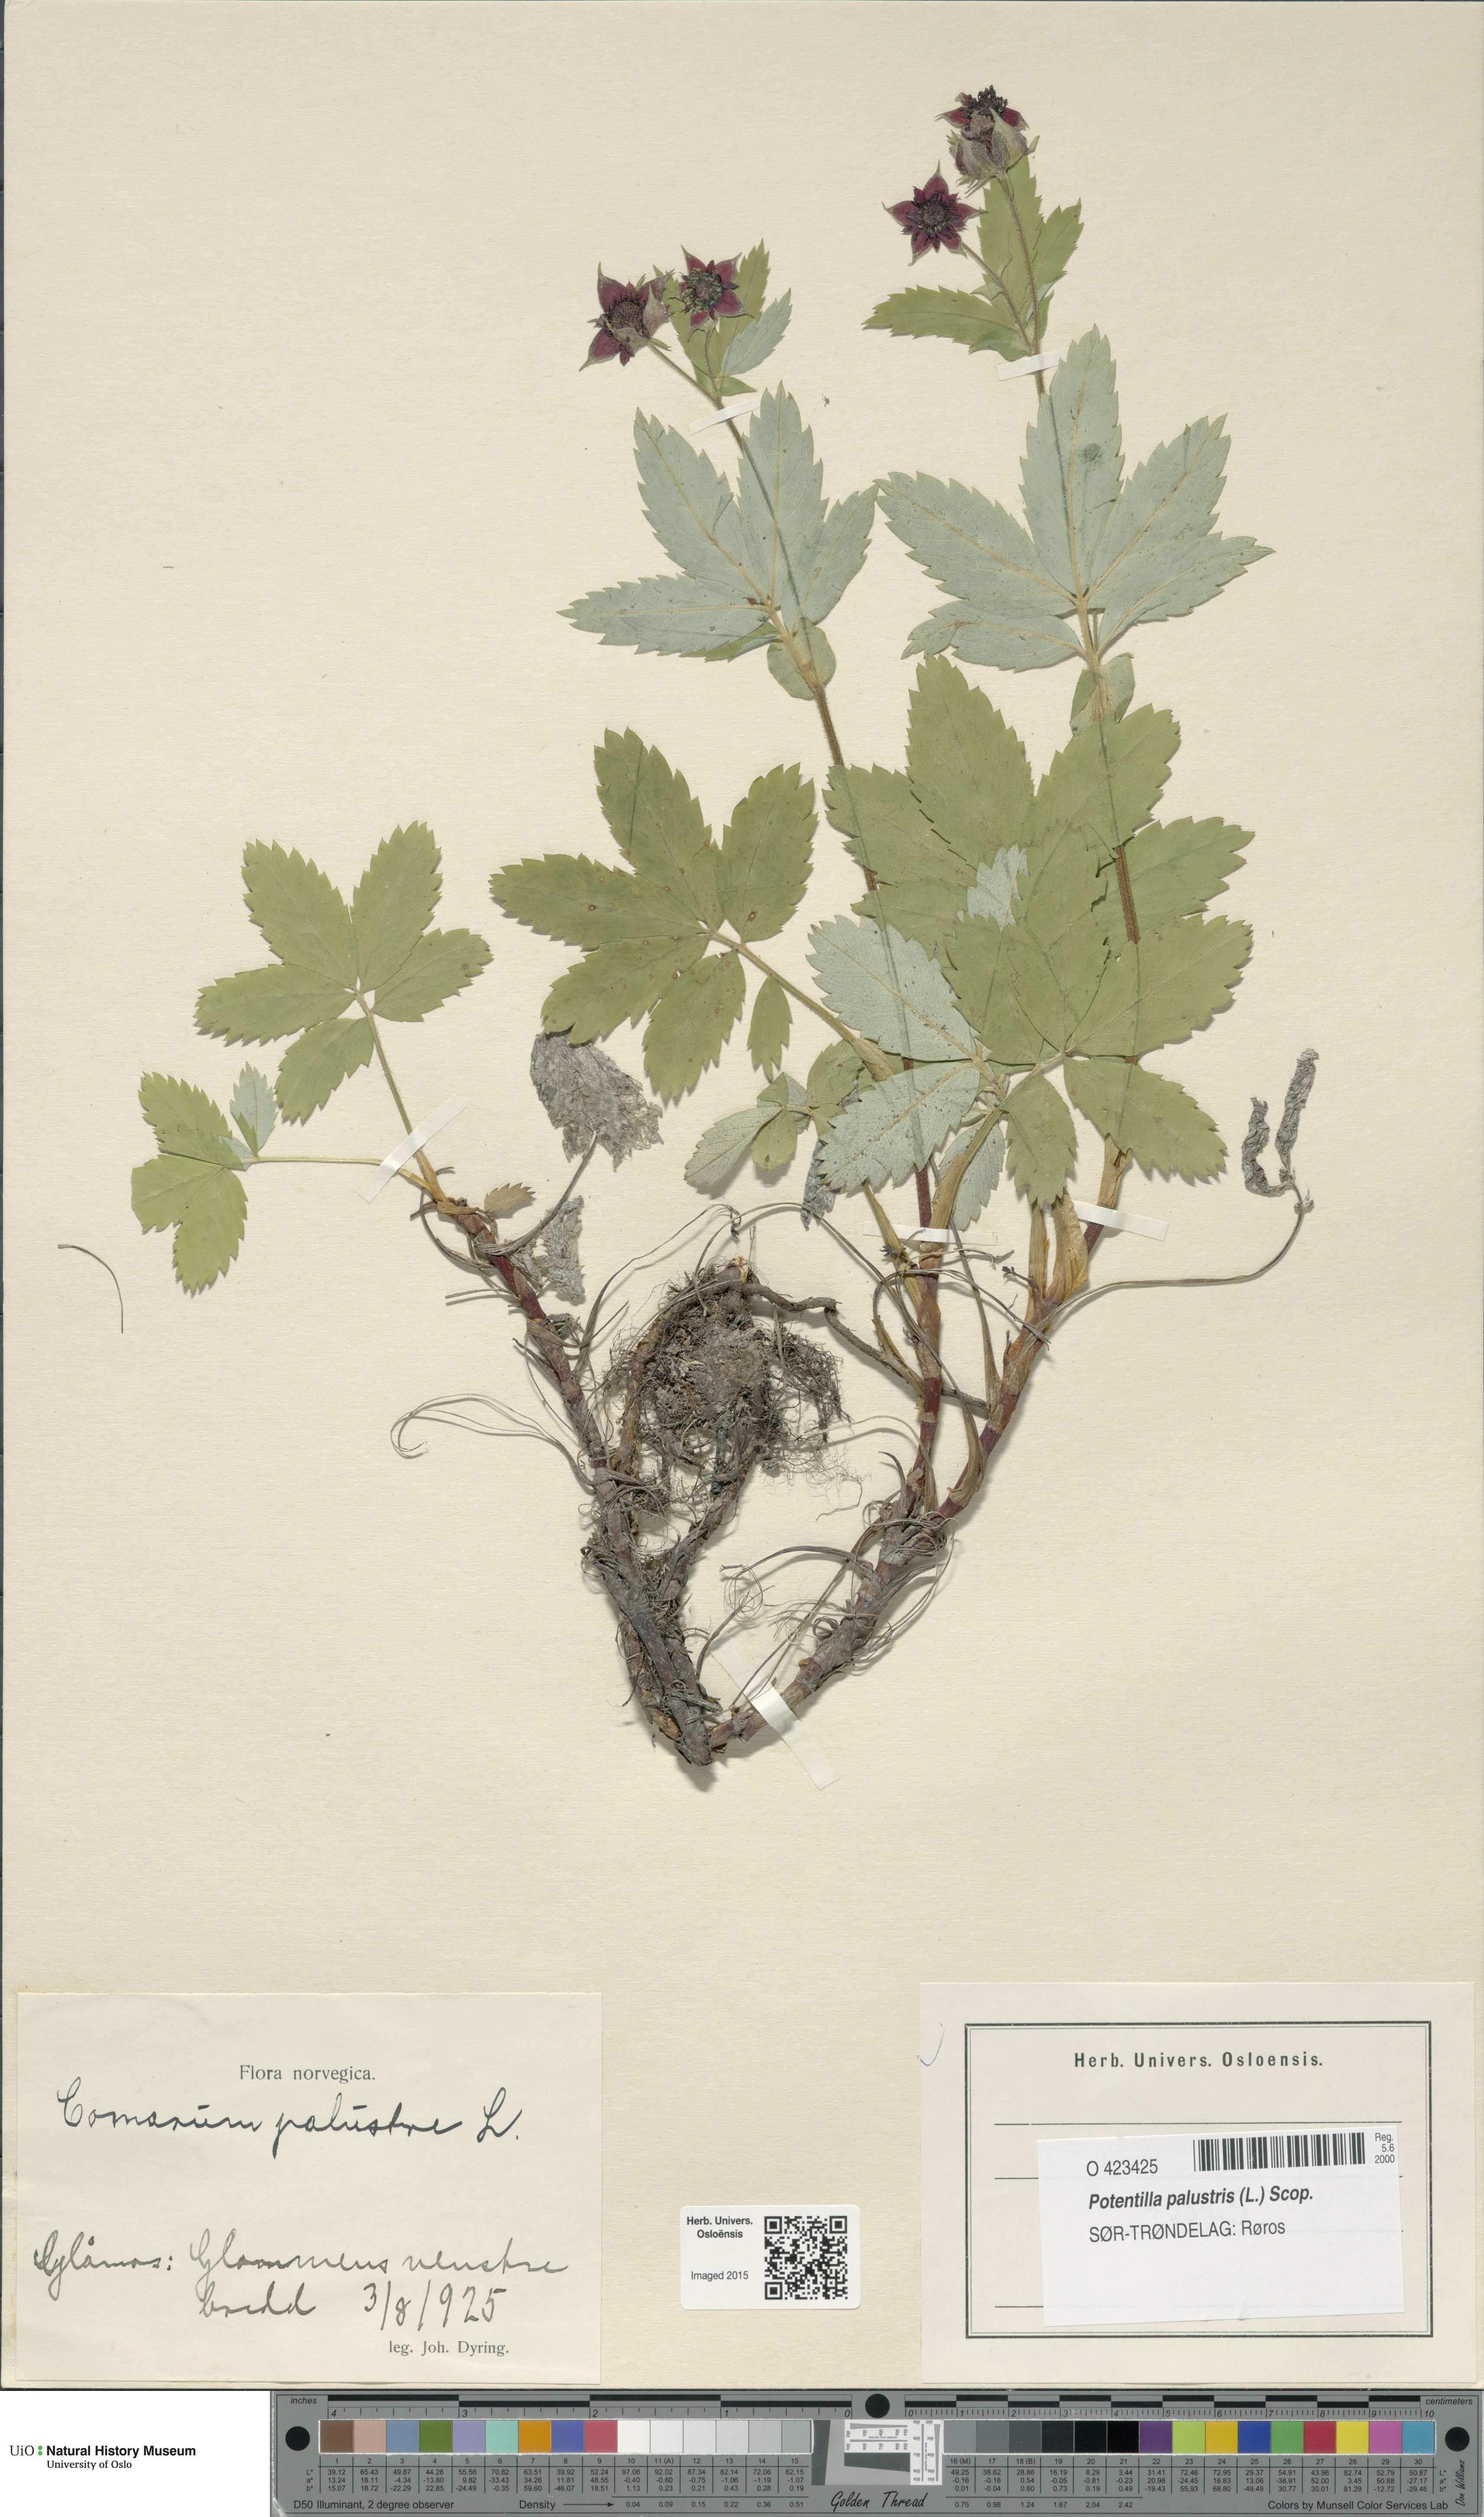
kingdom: Plantae
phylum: Tracheophyta
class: Magnoliopsida
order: Rosales
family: Rosaceae
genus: Comarum
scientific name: Comarum palustre
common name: Marsh cinquefoil
